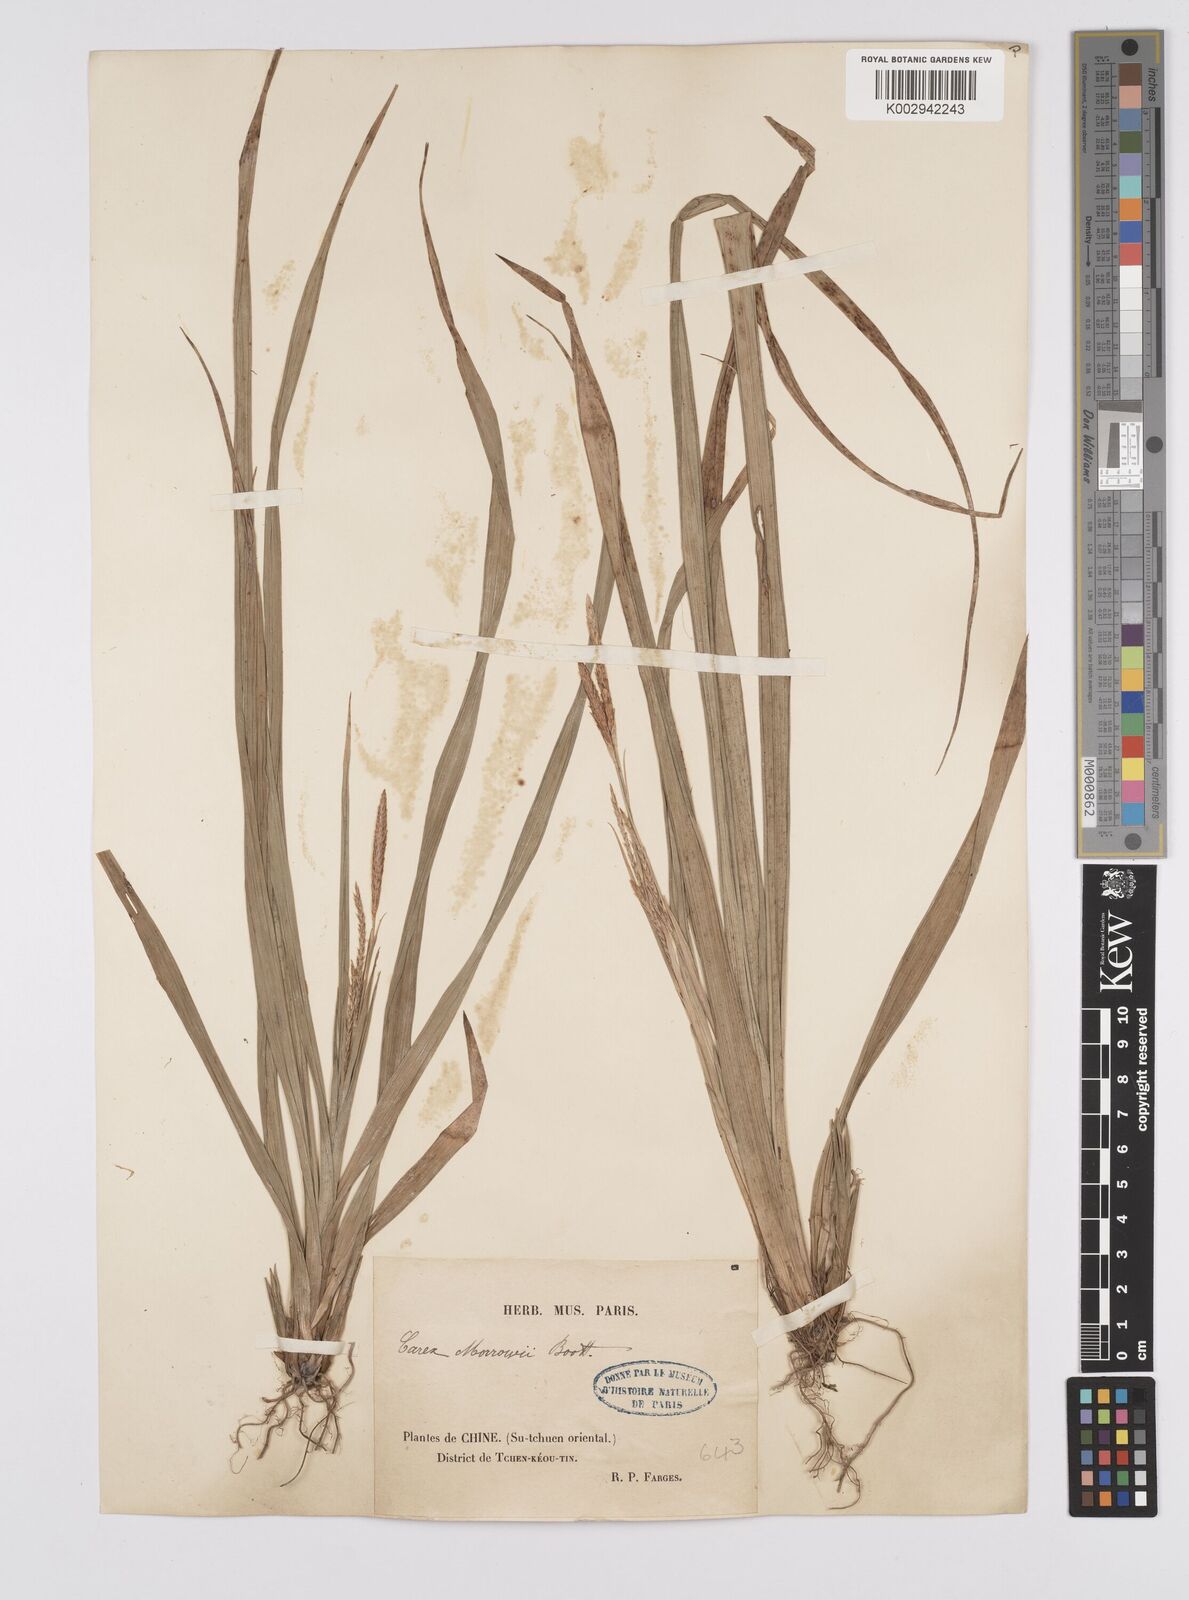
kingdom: Plantae
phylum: Tracheophyta
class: Liliopsida
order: Poales
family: Cyperaceae
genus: Carex
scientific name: Carex morrowii
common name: Japanese sedge
